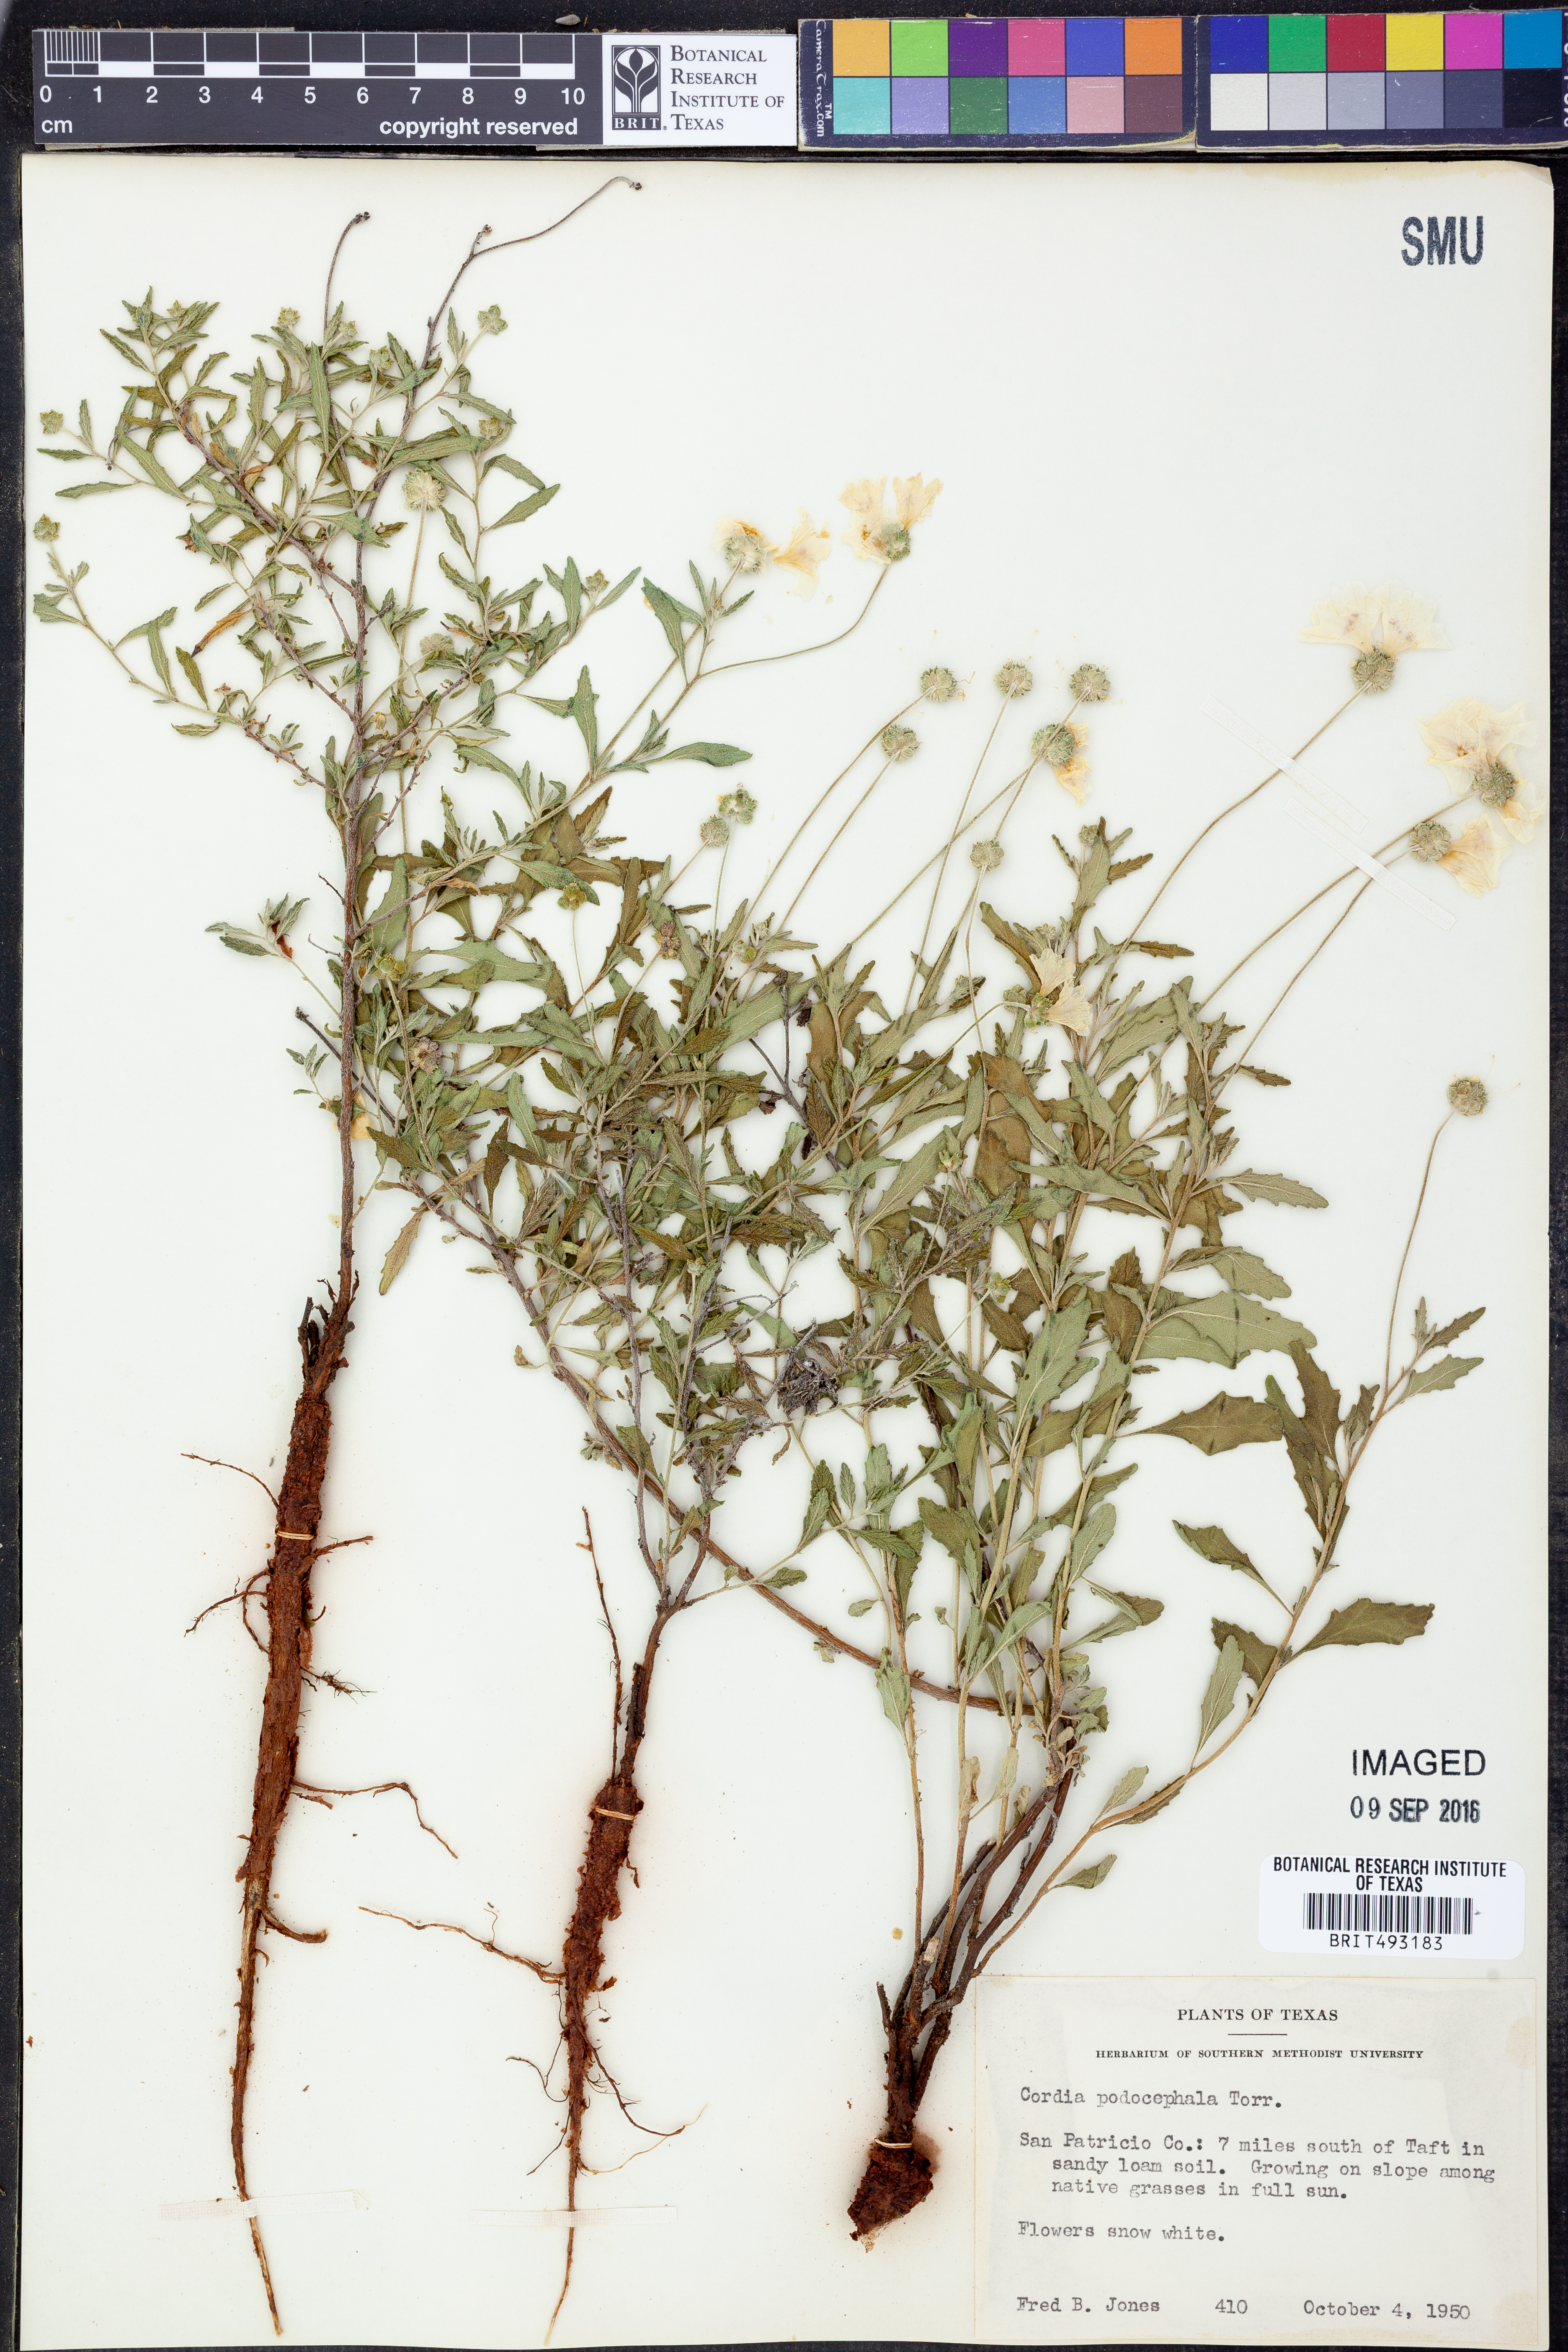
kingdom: Plantae
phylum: Tracheophyta
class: Magnoliopsida
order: Boraginales
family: Cordiaceae
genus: Varronia
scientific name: Varronia podocephala
